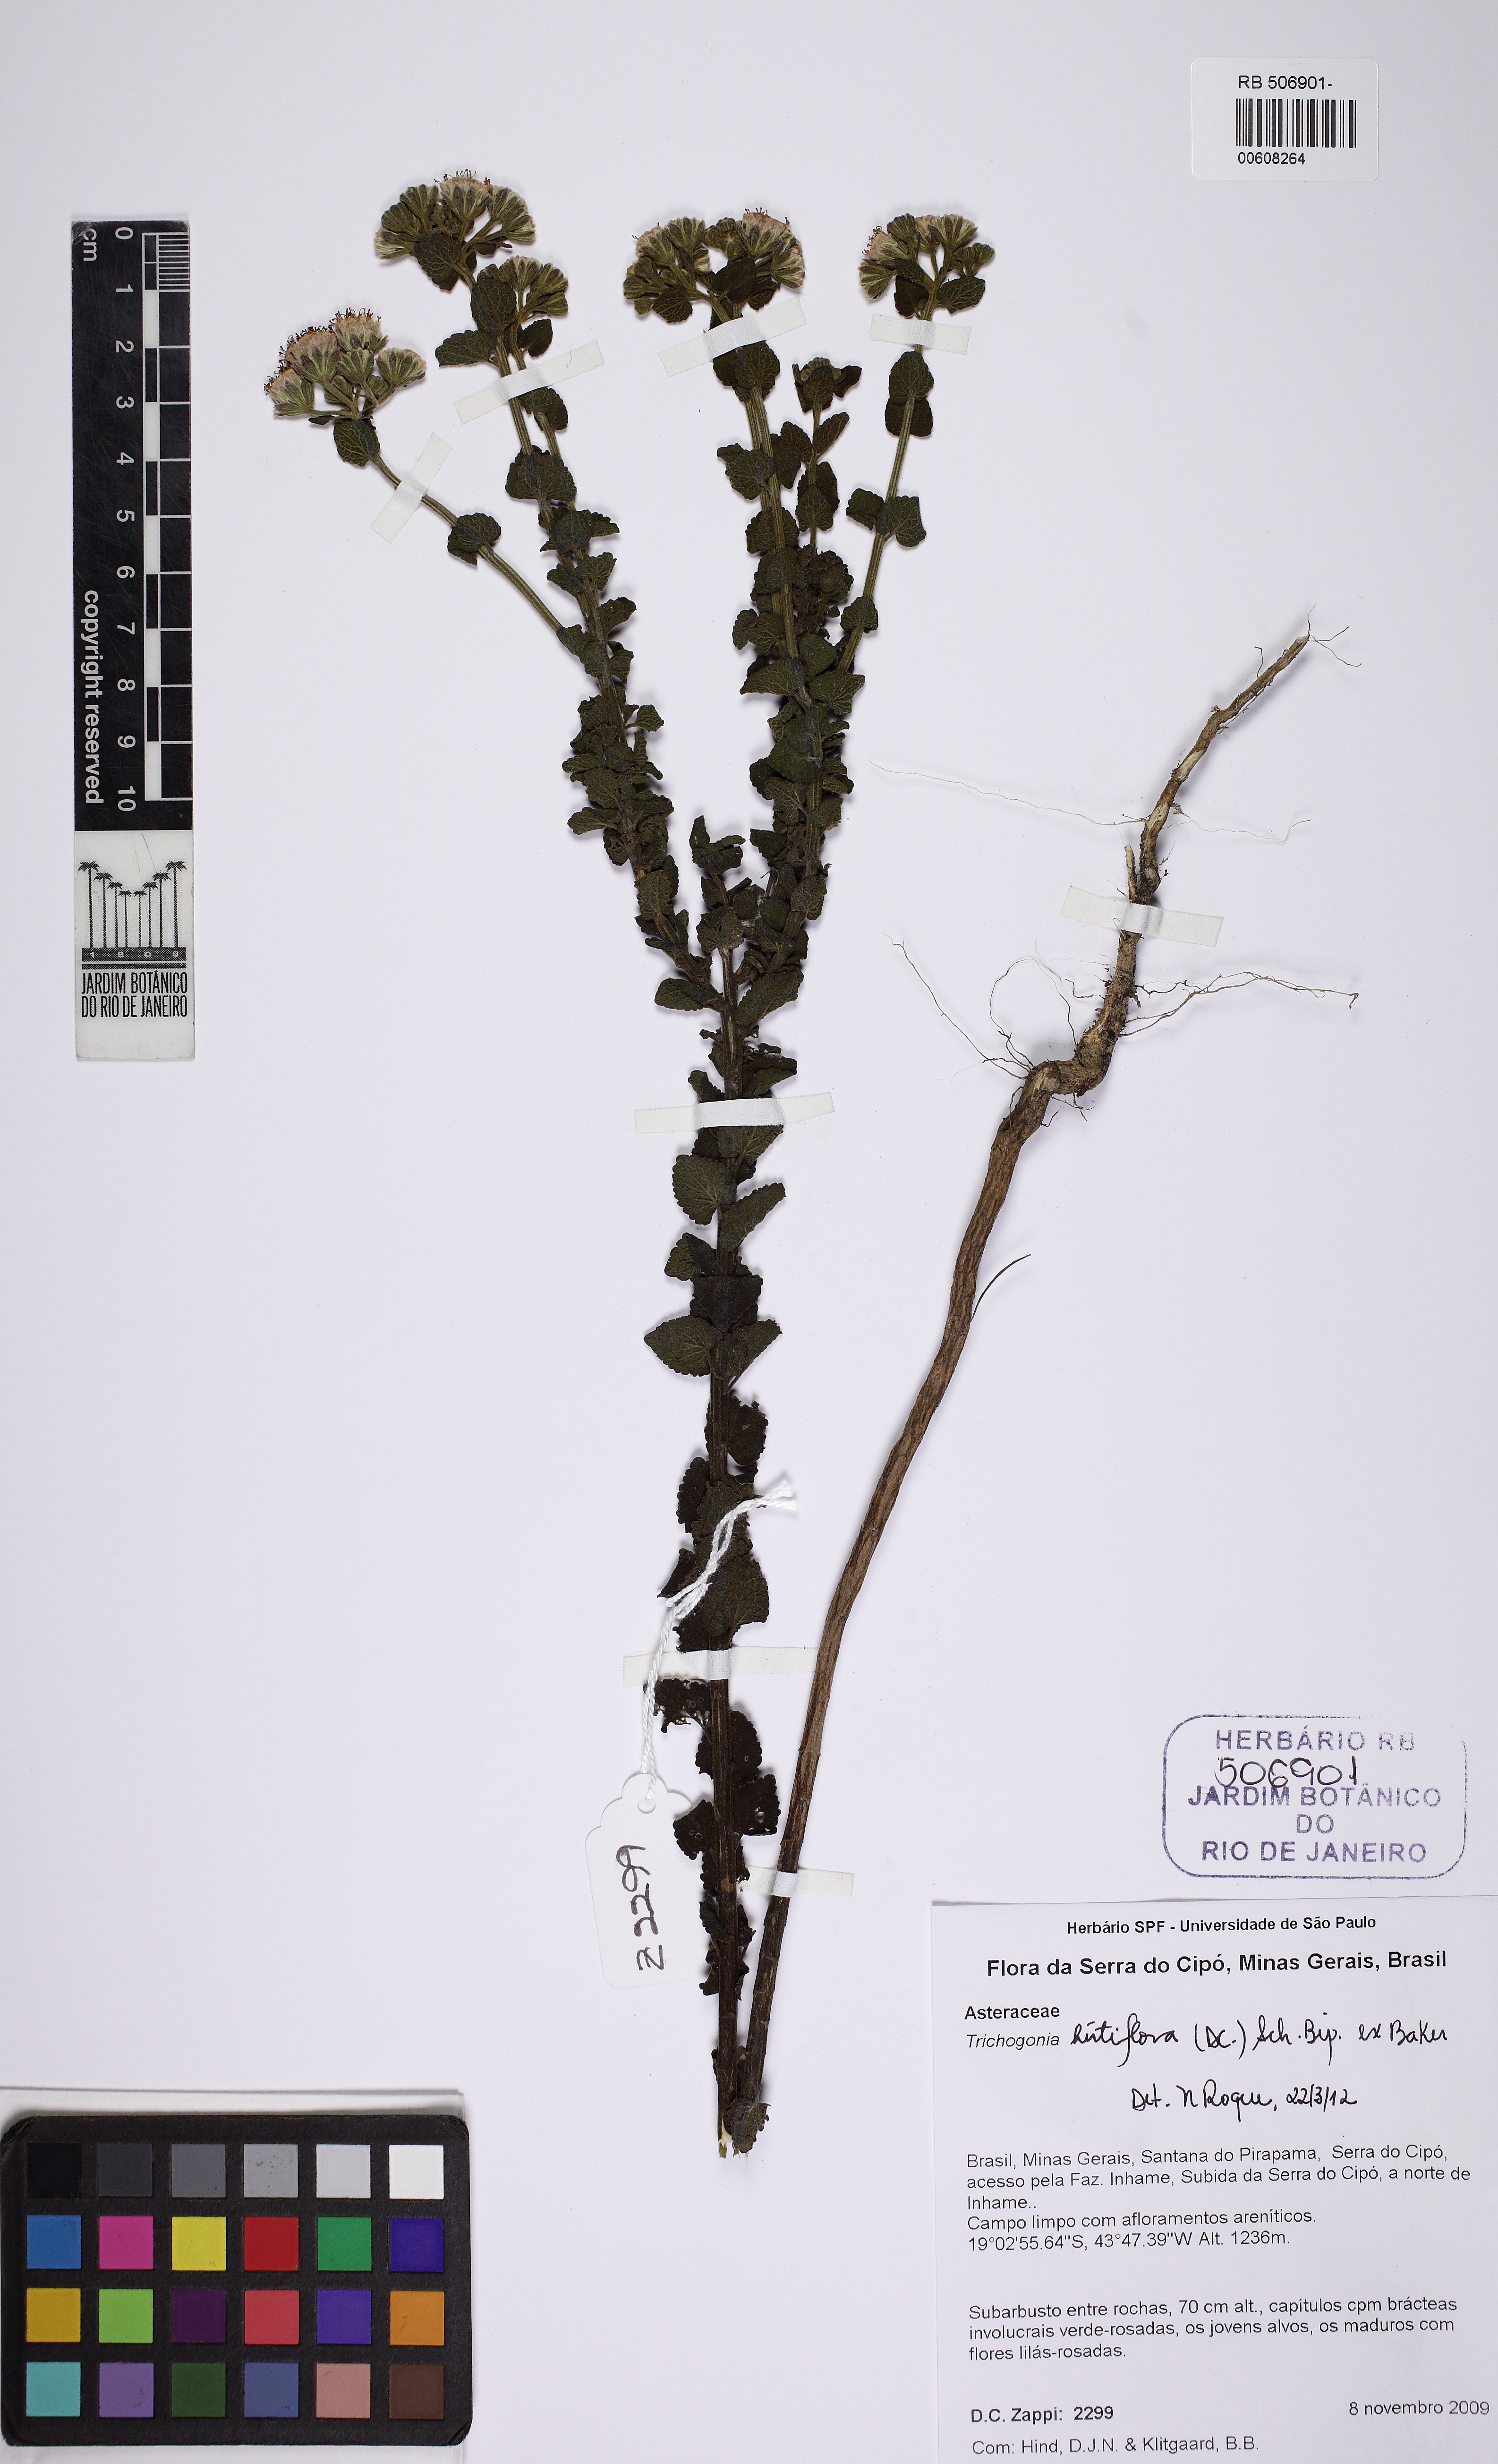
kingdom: Plantae
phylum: Tracheophyta
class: Magnoliopsida
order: Asterales
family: Asteraceae
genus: Trichogonia
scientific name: Trichogonia hirtiflora
